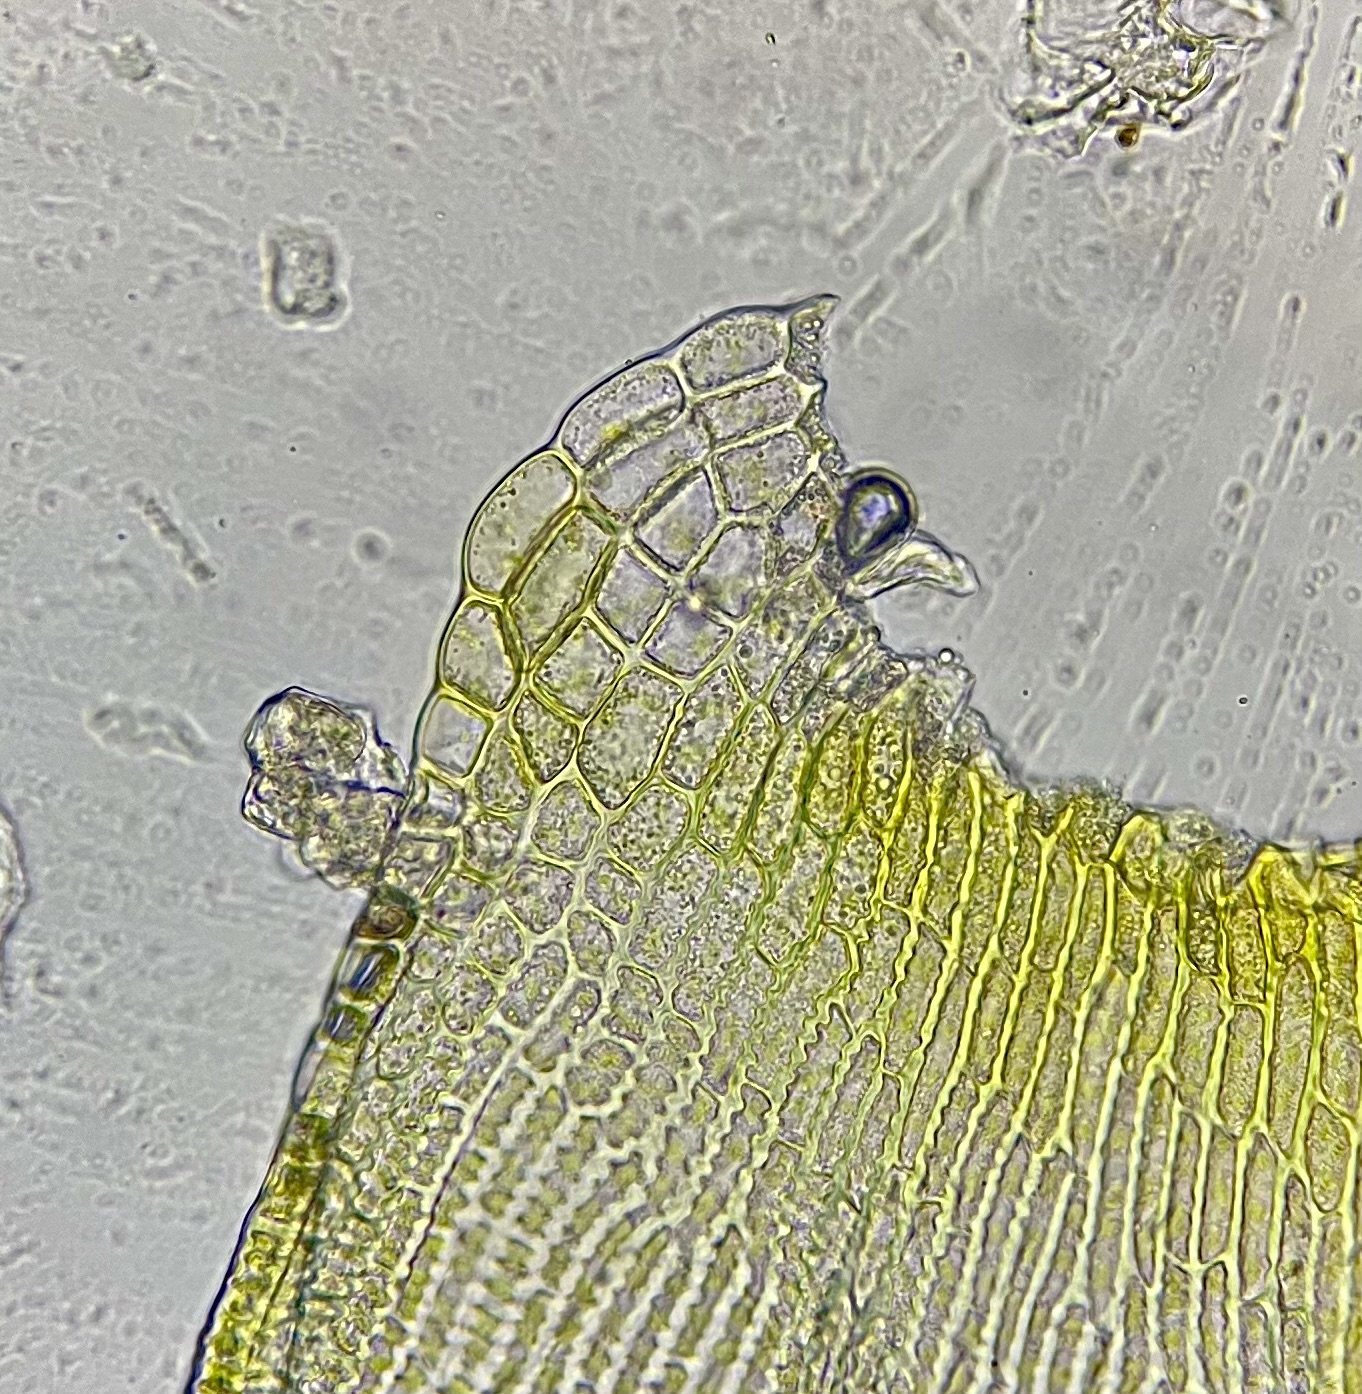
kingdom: Plantae
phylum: Bryophyta
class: Bryopsida
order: Grimmiales
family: Grimmiaceae
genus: Niphotrichum
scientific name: Niphotrichum elongatum
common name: Lang børstemos
